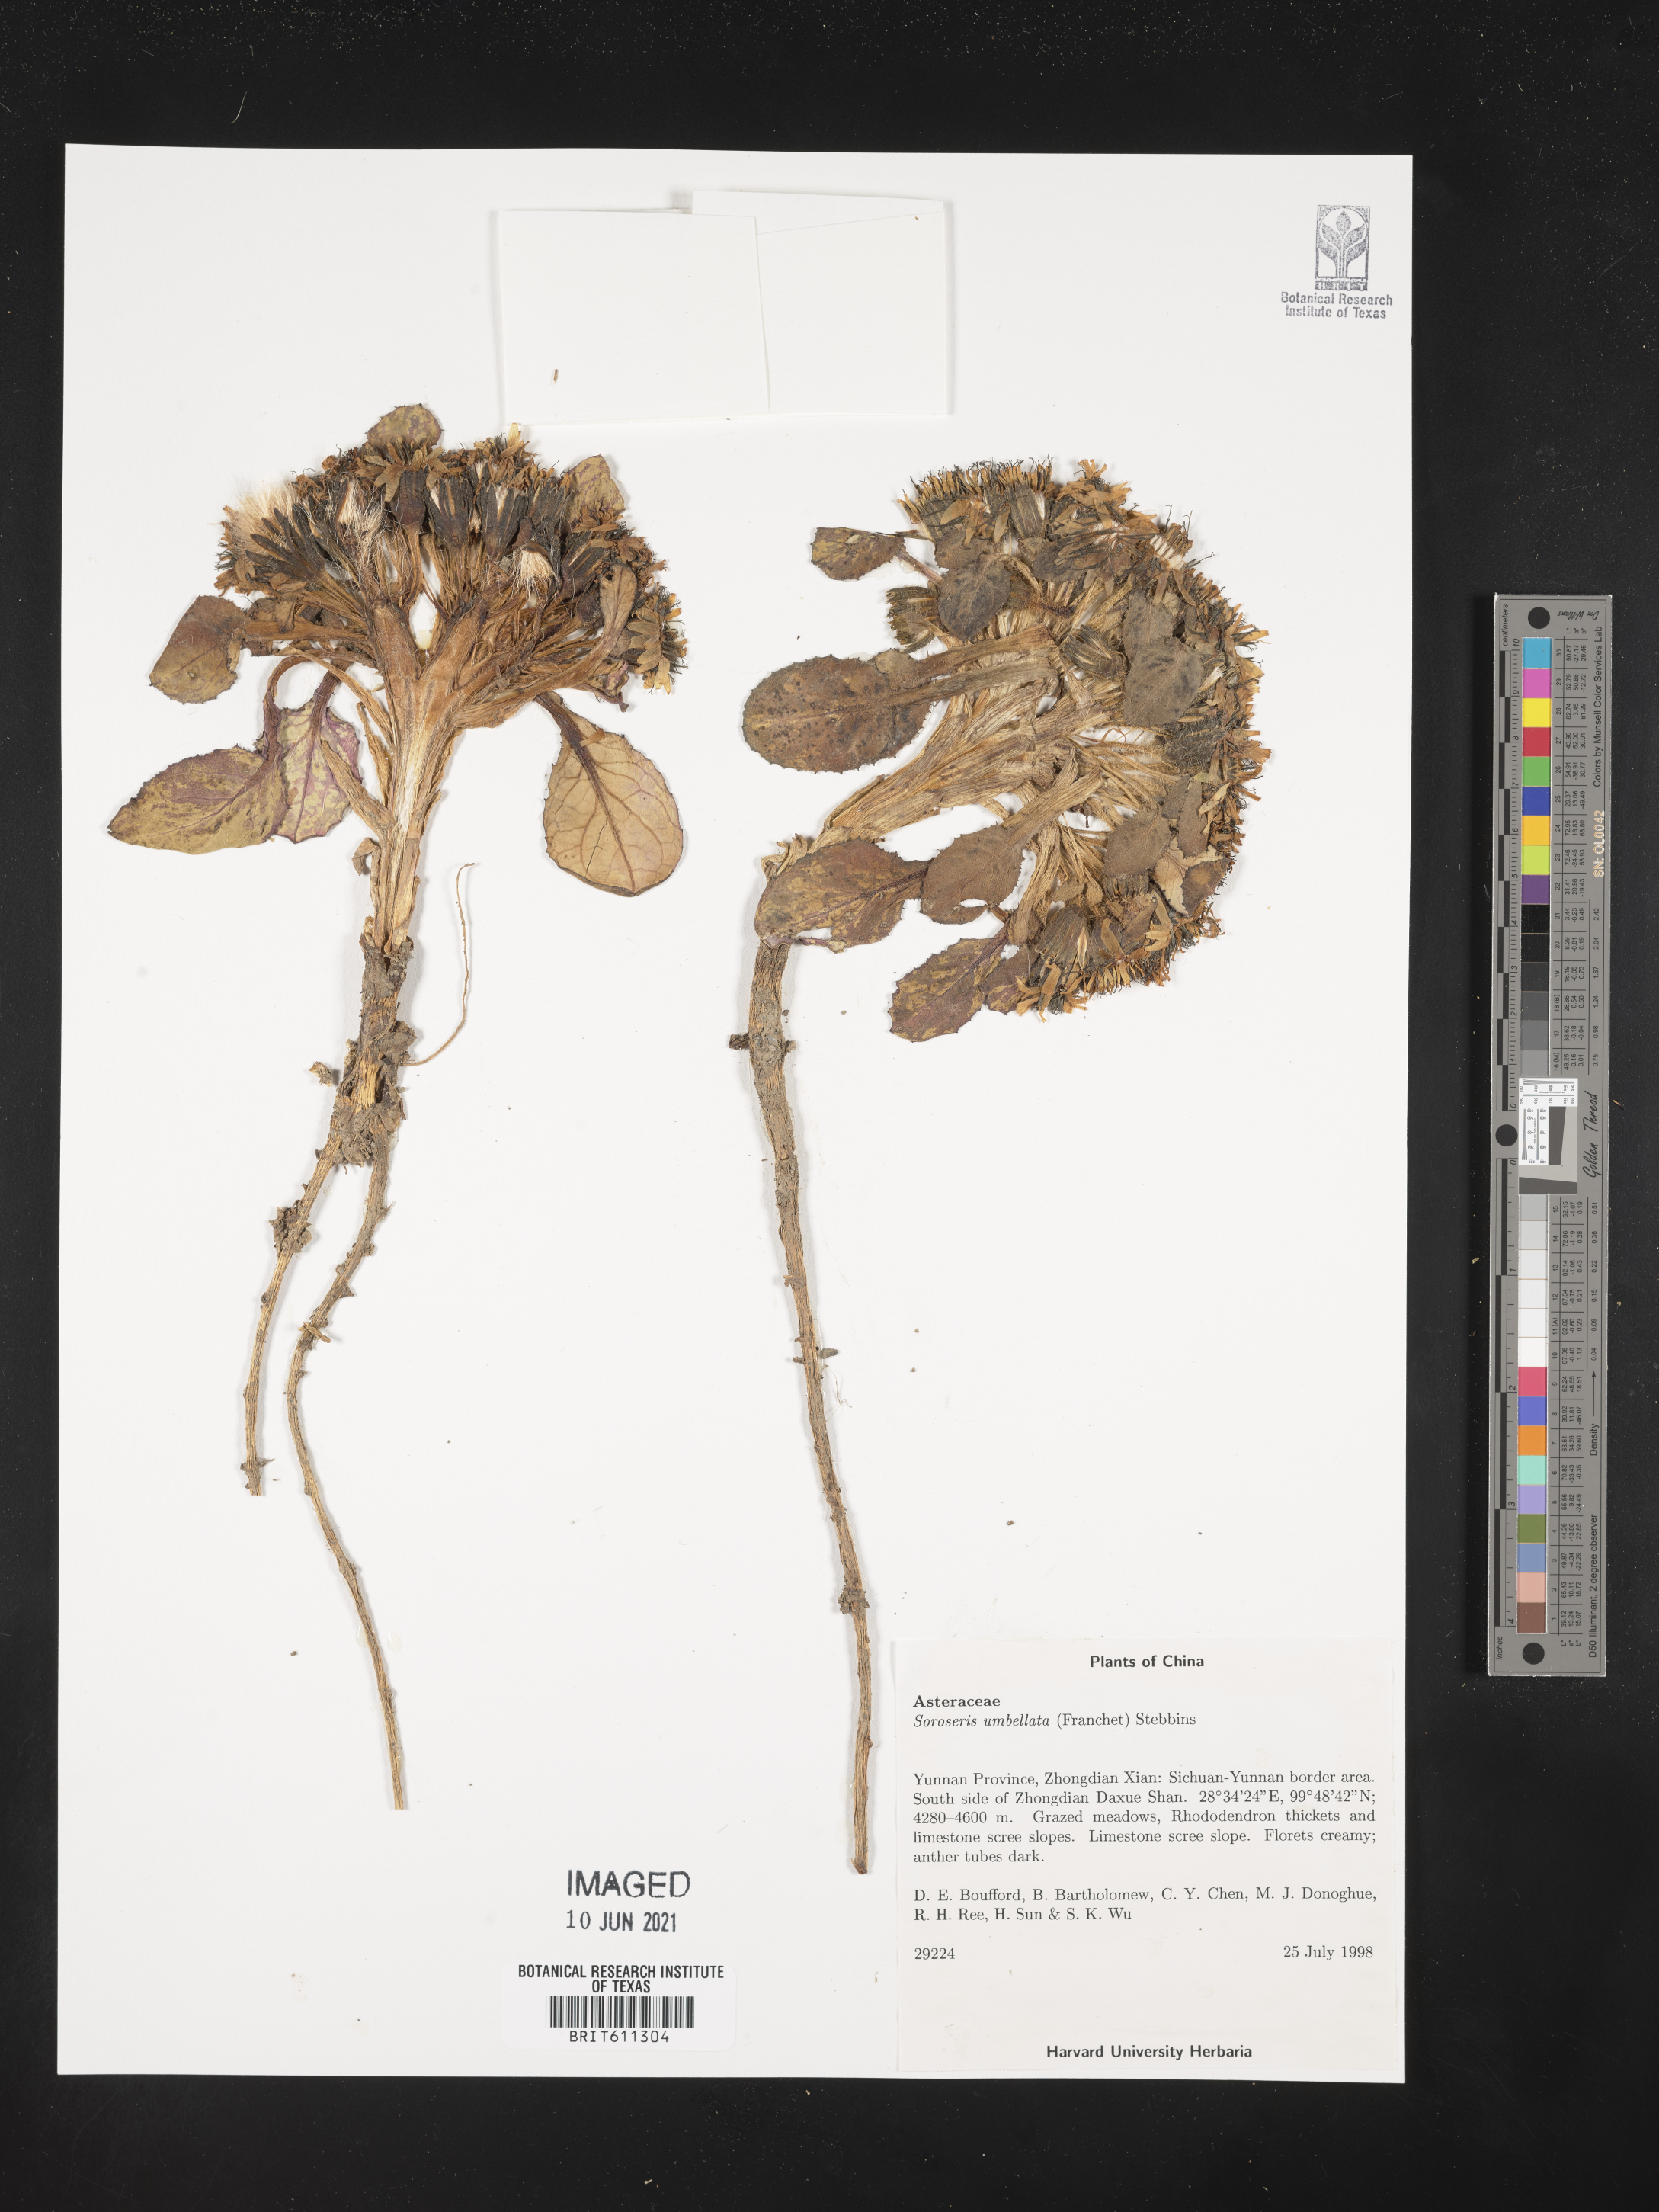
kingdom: Plantae
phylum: Tracheophyta
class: Magnoliopsida
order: Asterales
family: Asteraceae
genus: Soroseris
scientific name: Soroseris umbrella
